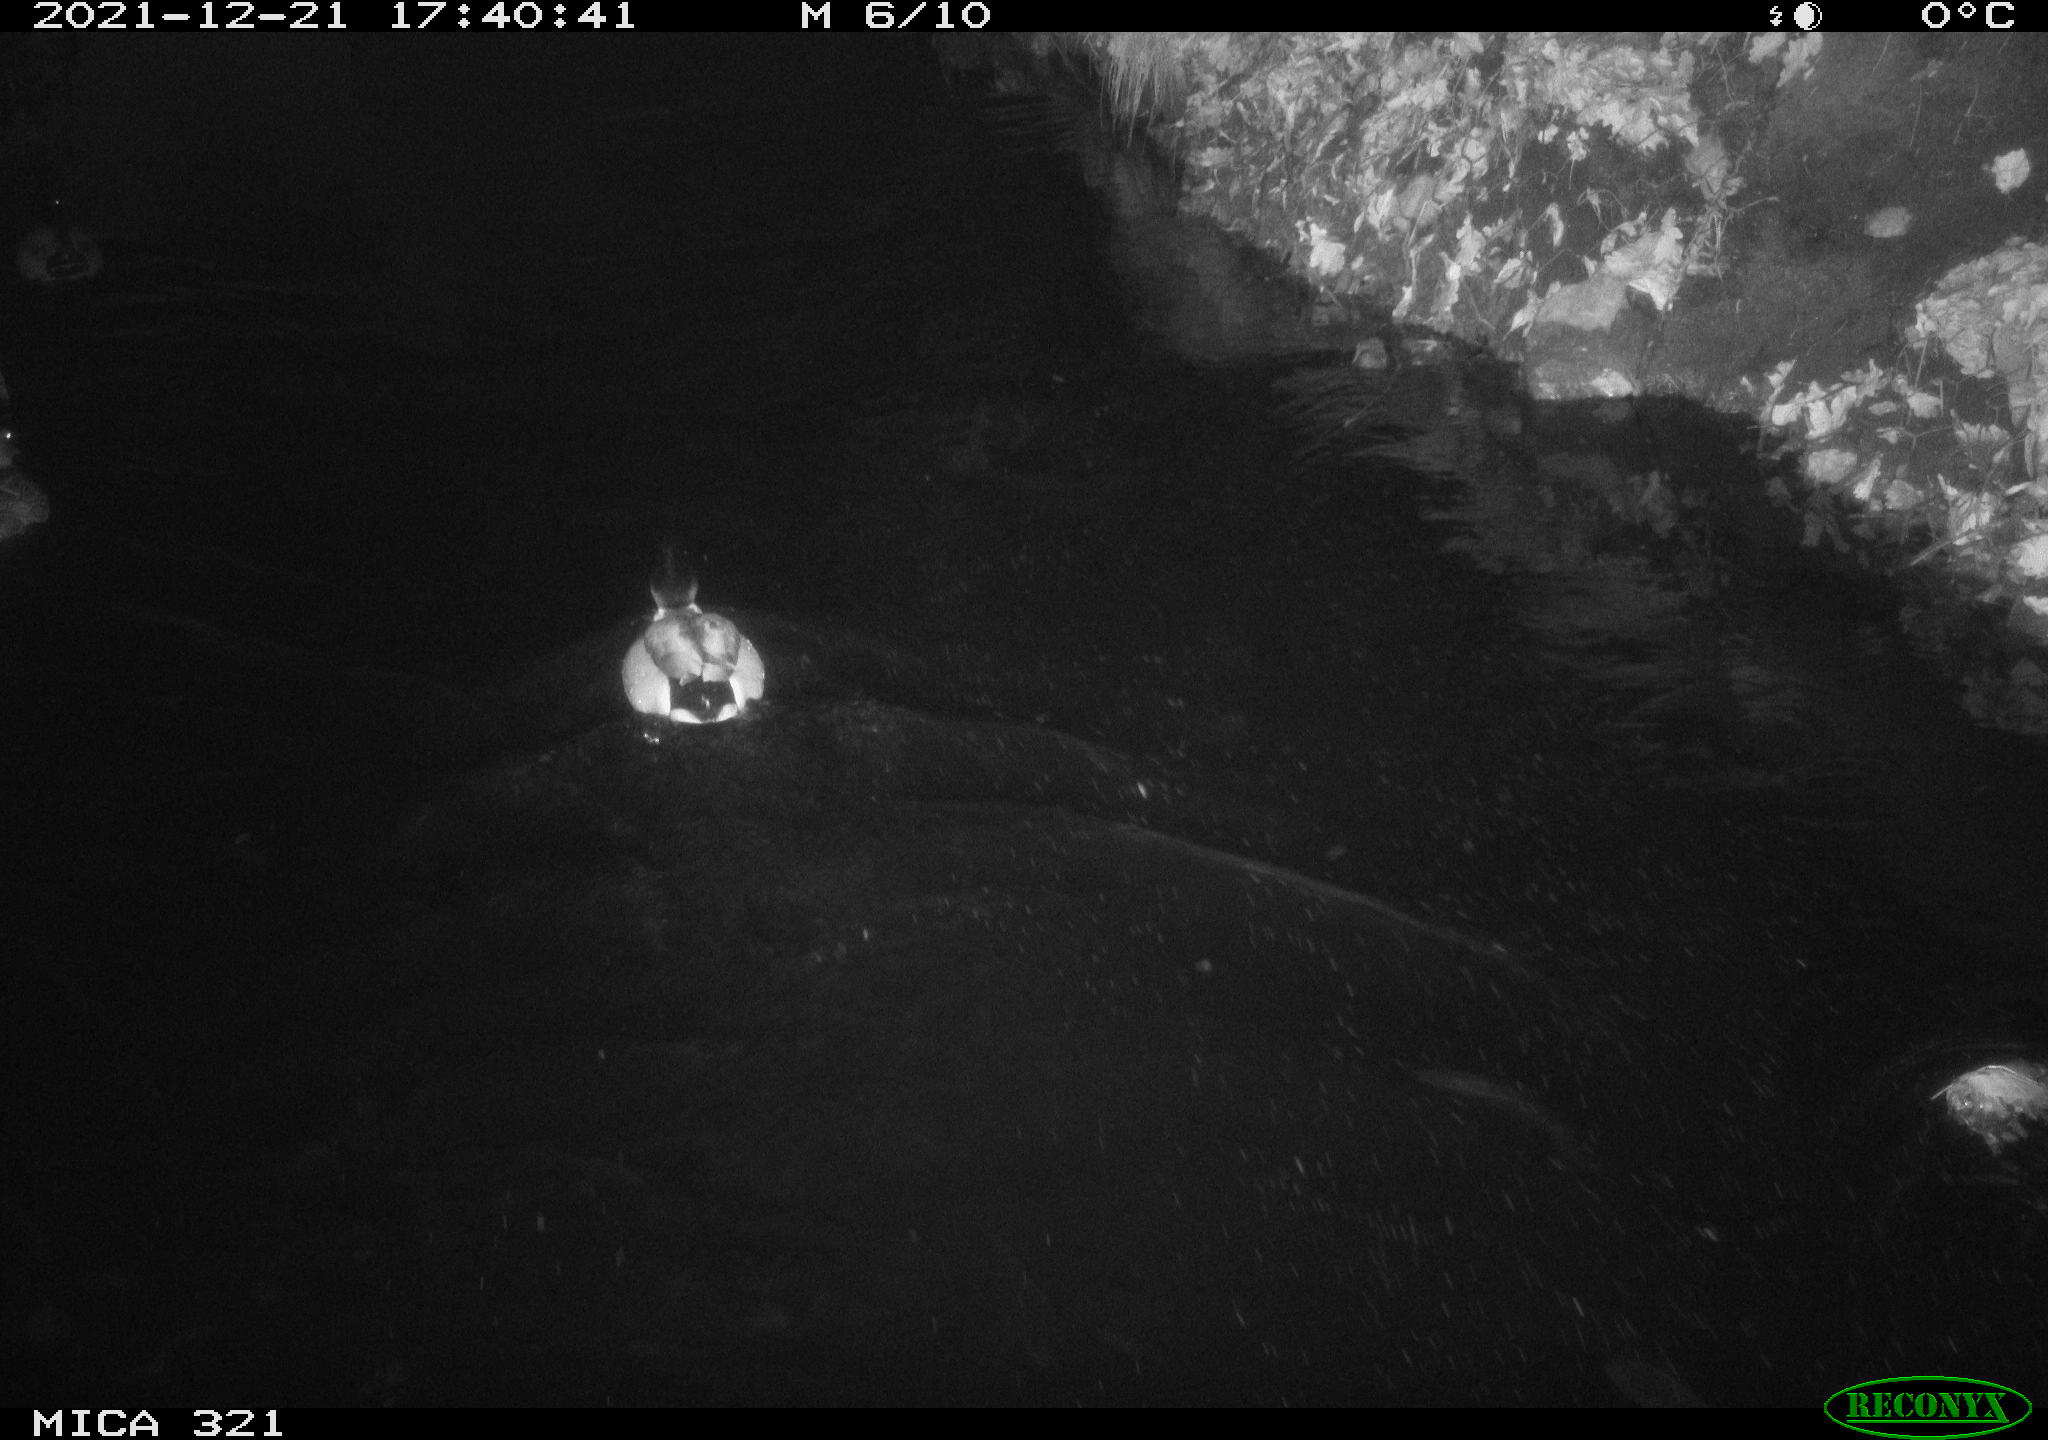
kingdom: Animalia
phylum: Chordata
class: Aves
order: Anseriformes
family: Anatidae
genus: Anas
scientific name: Anas
